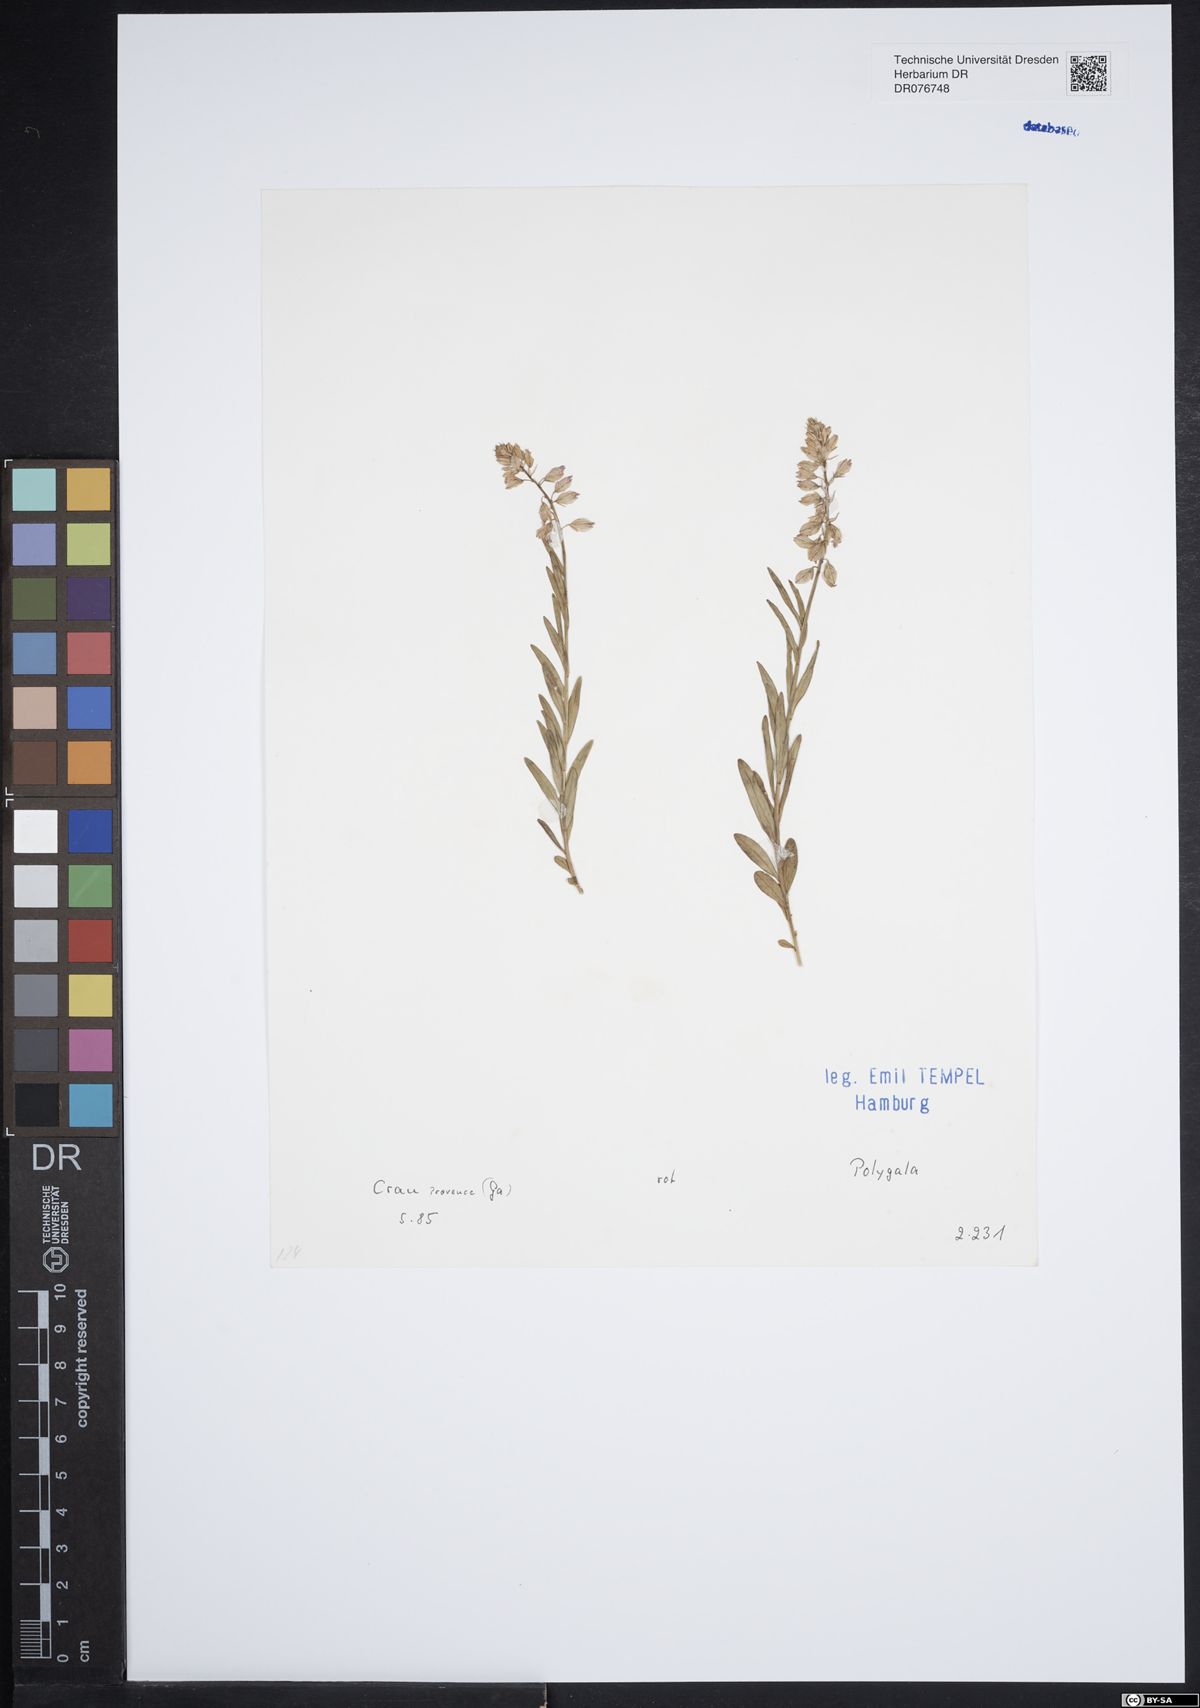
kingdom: Plantae
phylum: Tracheophyta
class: Magnoliopsida
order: Fabales
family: Polygalaceae
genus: Polygala
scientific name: Polygala
